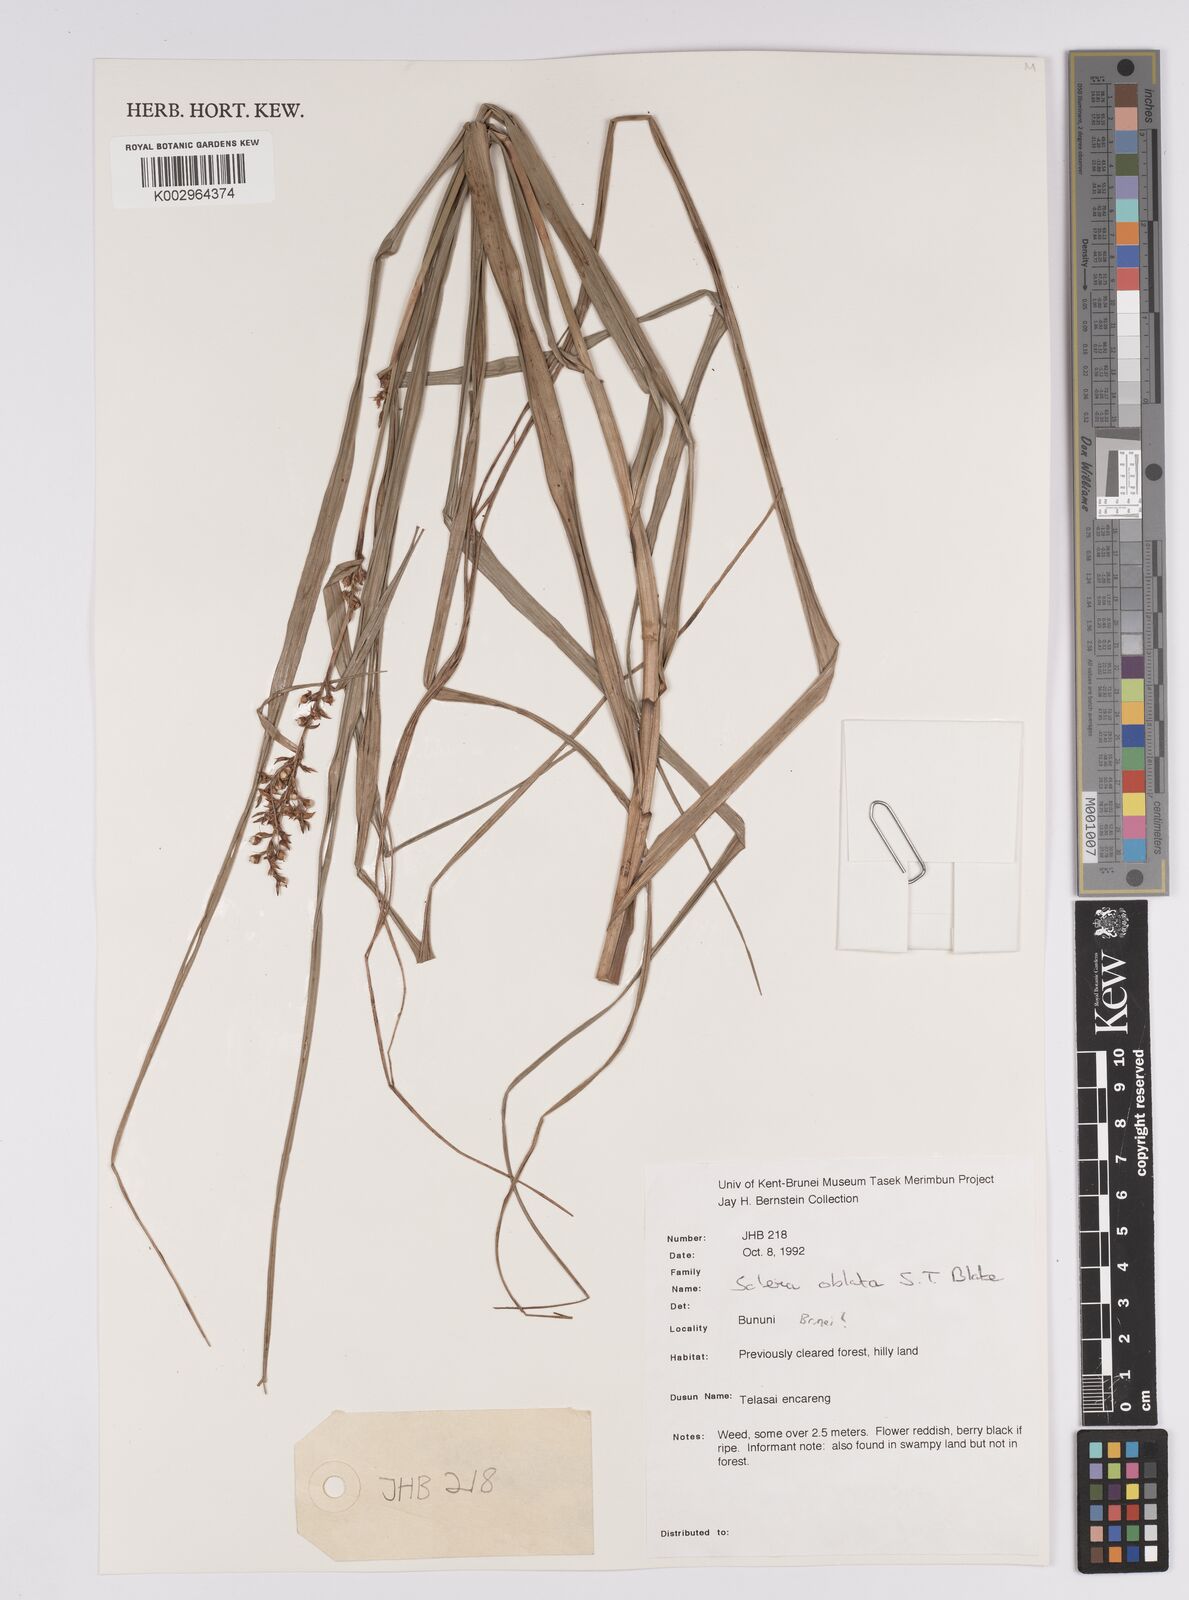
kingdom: Plantae
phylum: Tracheophyta
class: Liliopsida
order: Poales
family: Cyperaceae
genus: Scleria
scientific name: Scleria oblata
